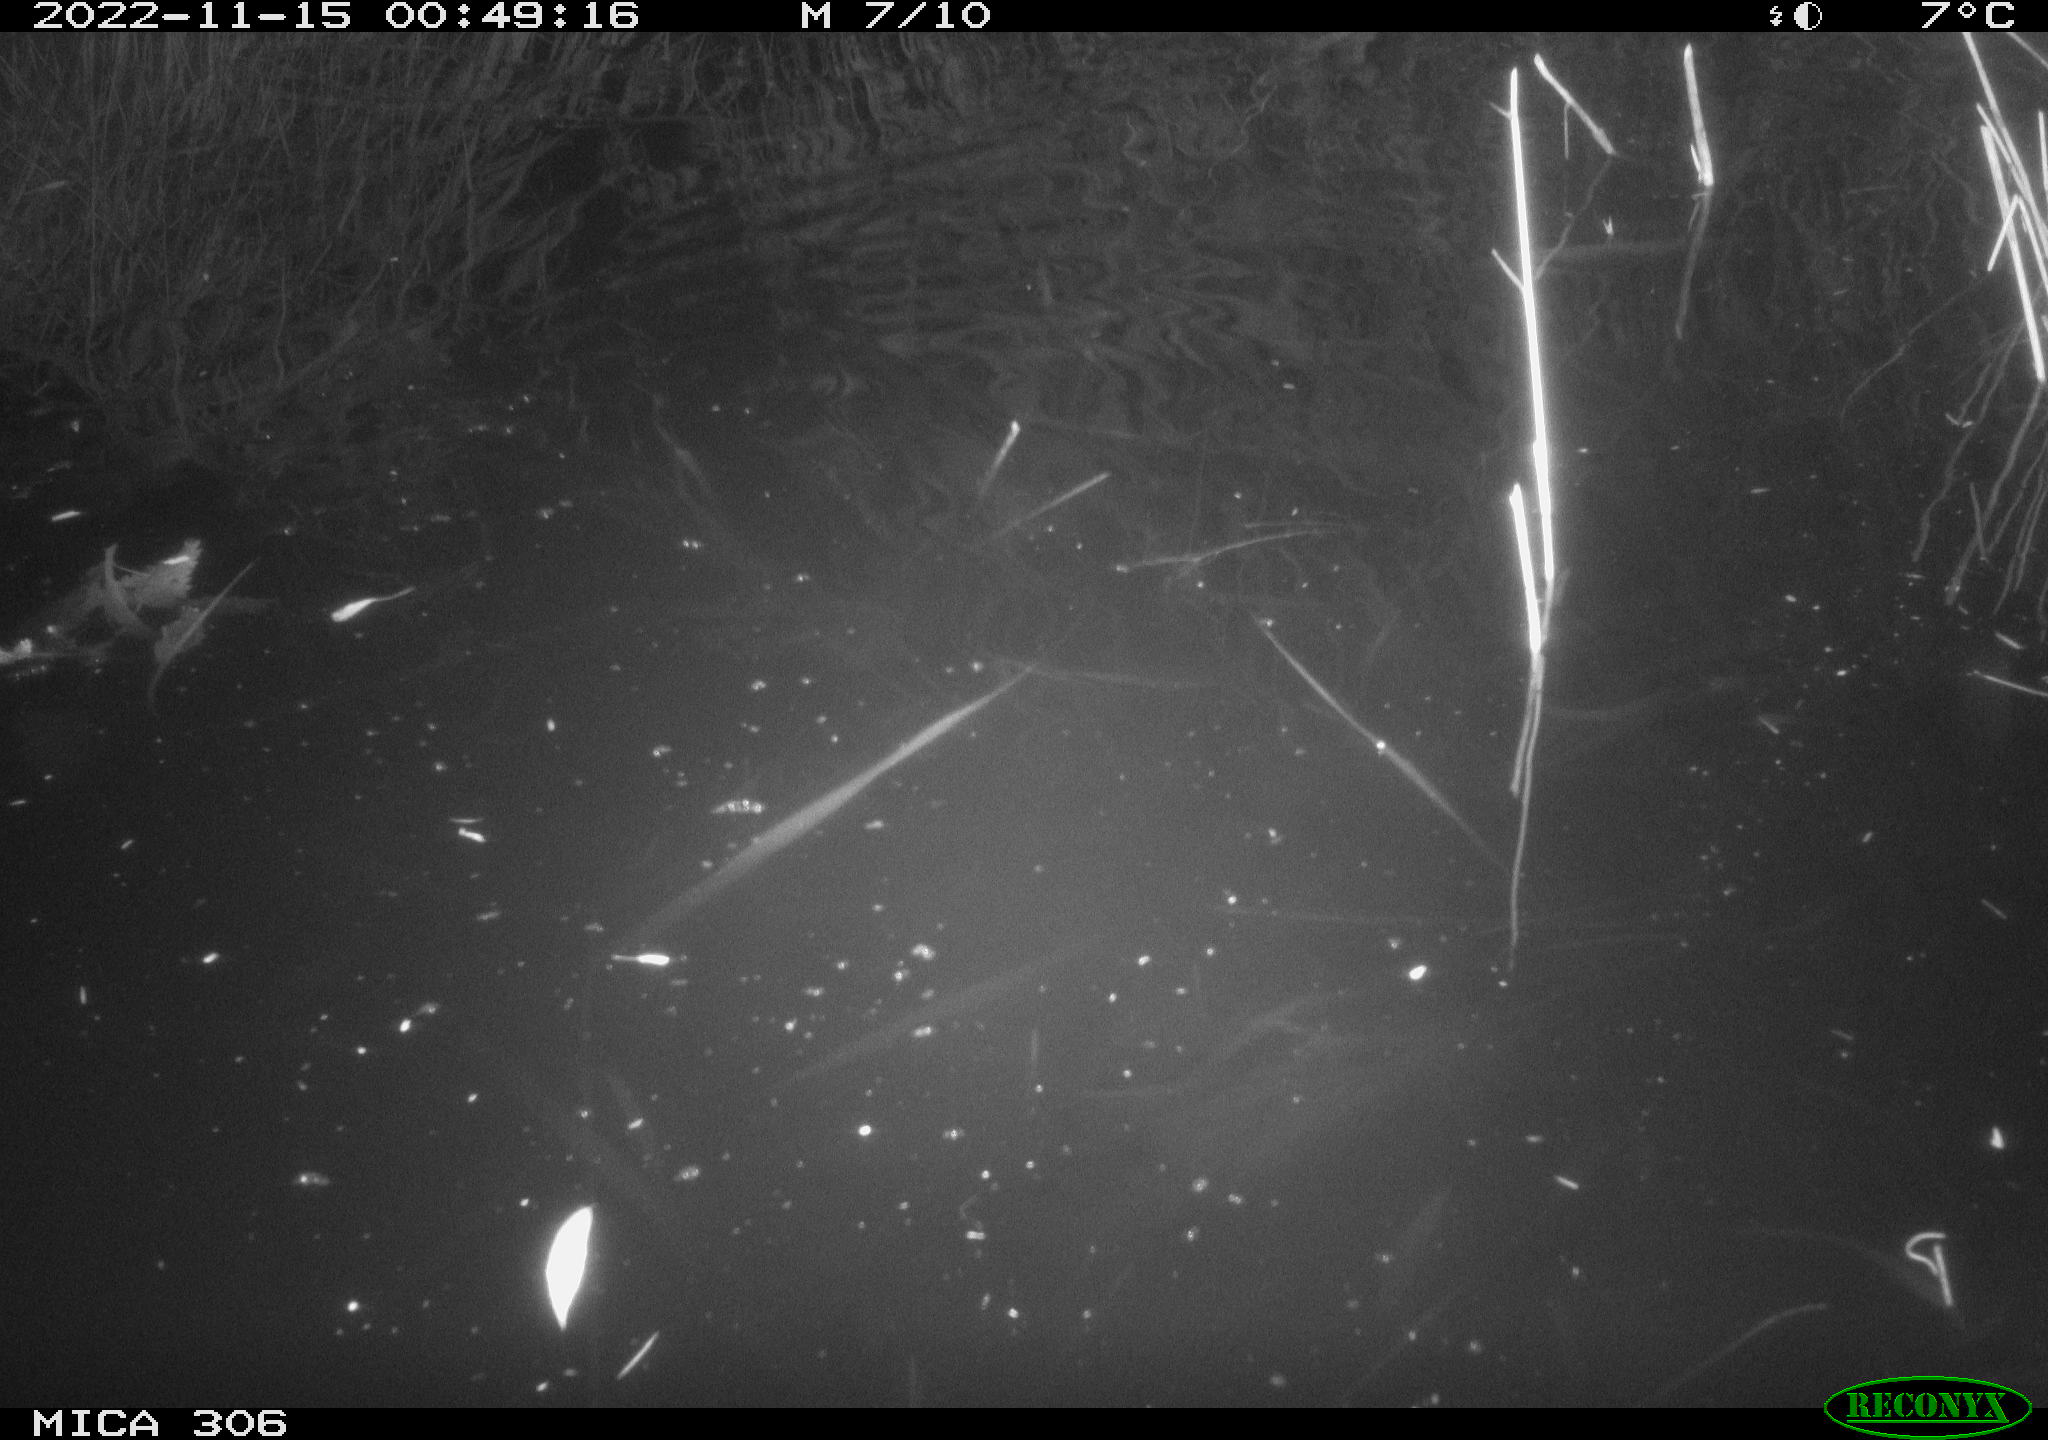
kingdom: Animalia
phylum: Chordata
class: Mammalia
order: Rodentia
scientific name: Rodentia
